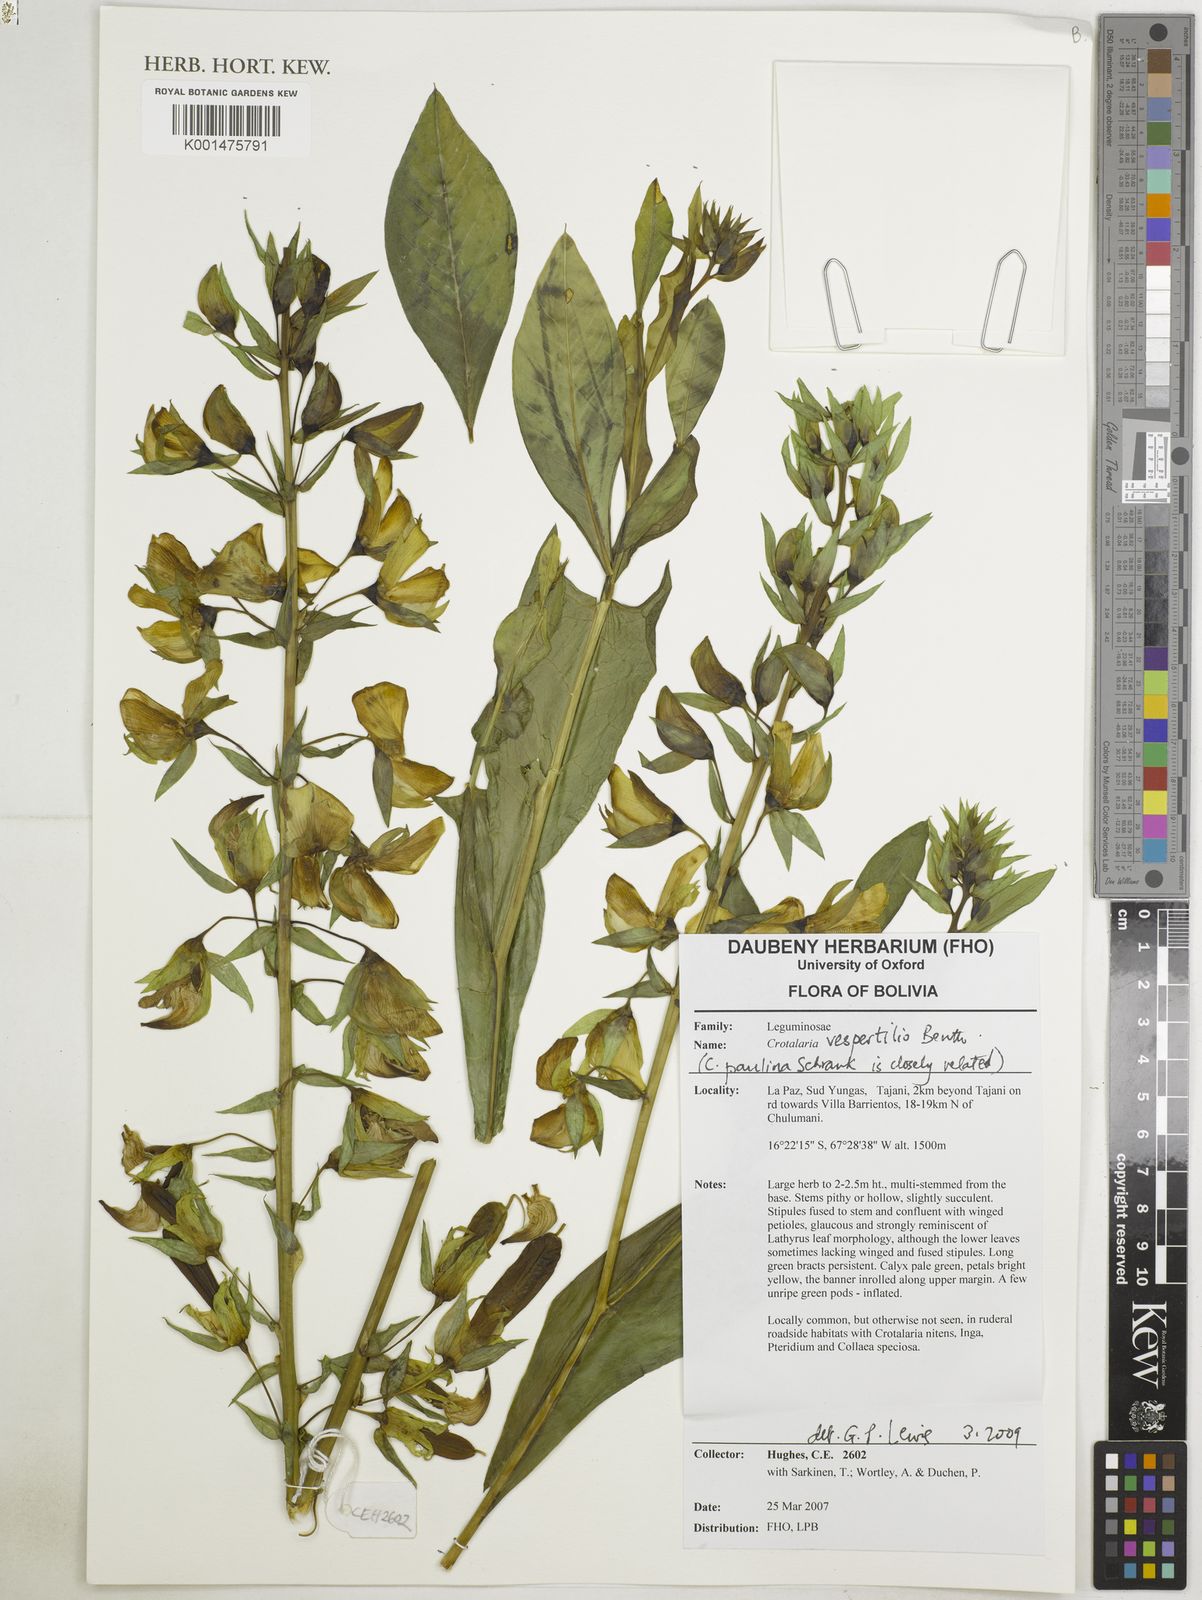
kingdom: Plantae
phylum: Tracheophyta
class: Magnoliopsida
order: Fabales
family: Fabaceae
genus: Crotalaria
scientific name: Crotalaria vespertilio
